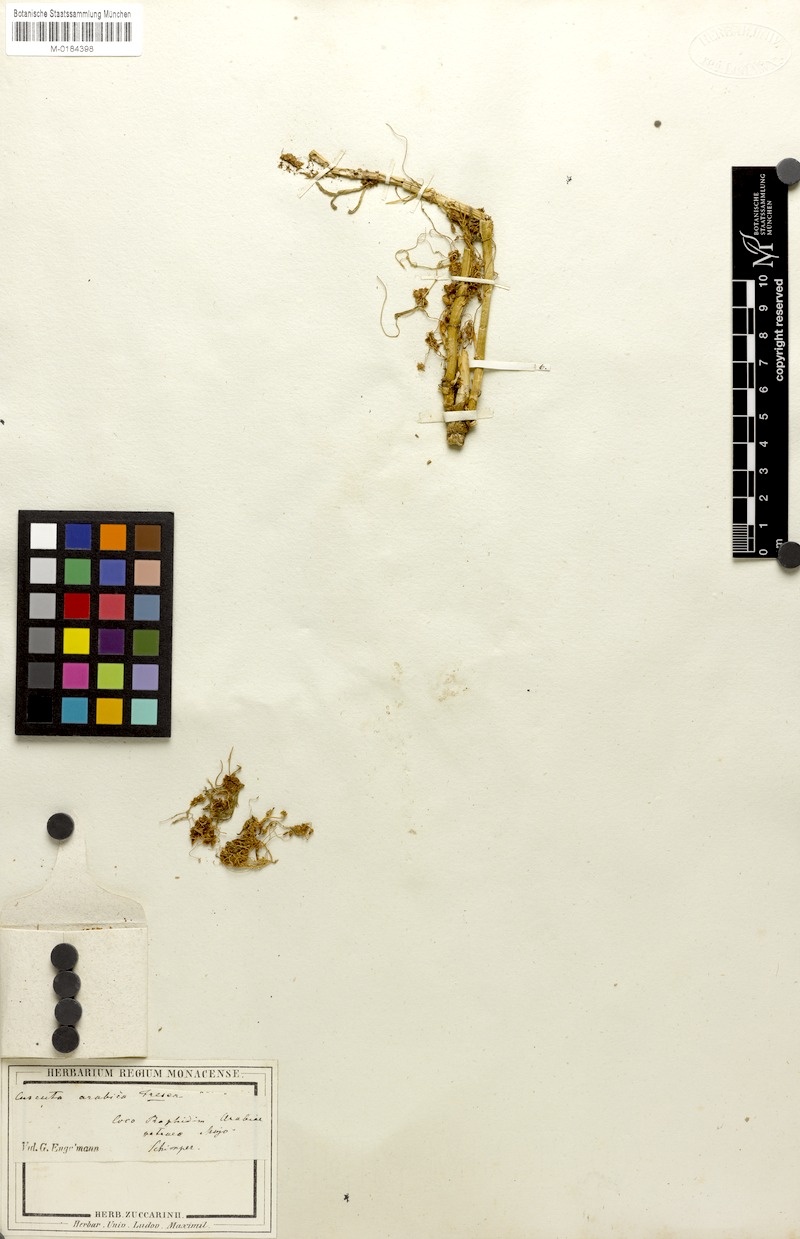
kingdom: Plantae
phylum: Tracheophyta
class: Magnoliopsida
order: Solanales
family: Convolvulaceae
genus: Cuscuta
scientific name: Cuscuta hyalina
